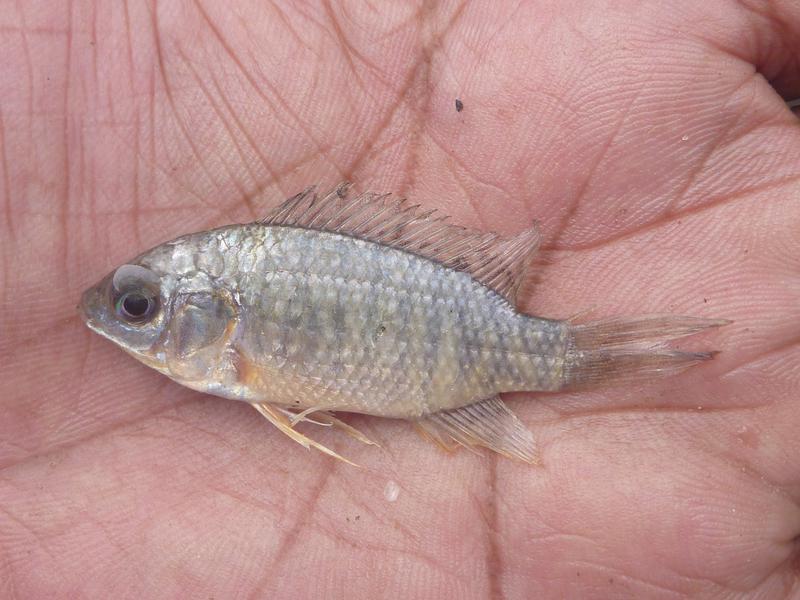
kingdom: Animalia
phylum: Chordata
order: Perciformes
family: Cichlidae
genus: Oreochromis
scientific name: Oreochromis leucostictus
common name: Blue spotted tilapia
